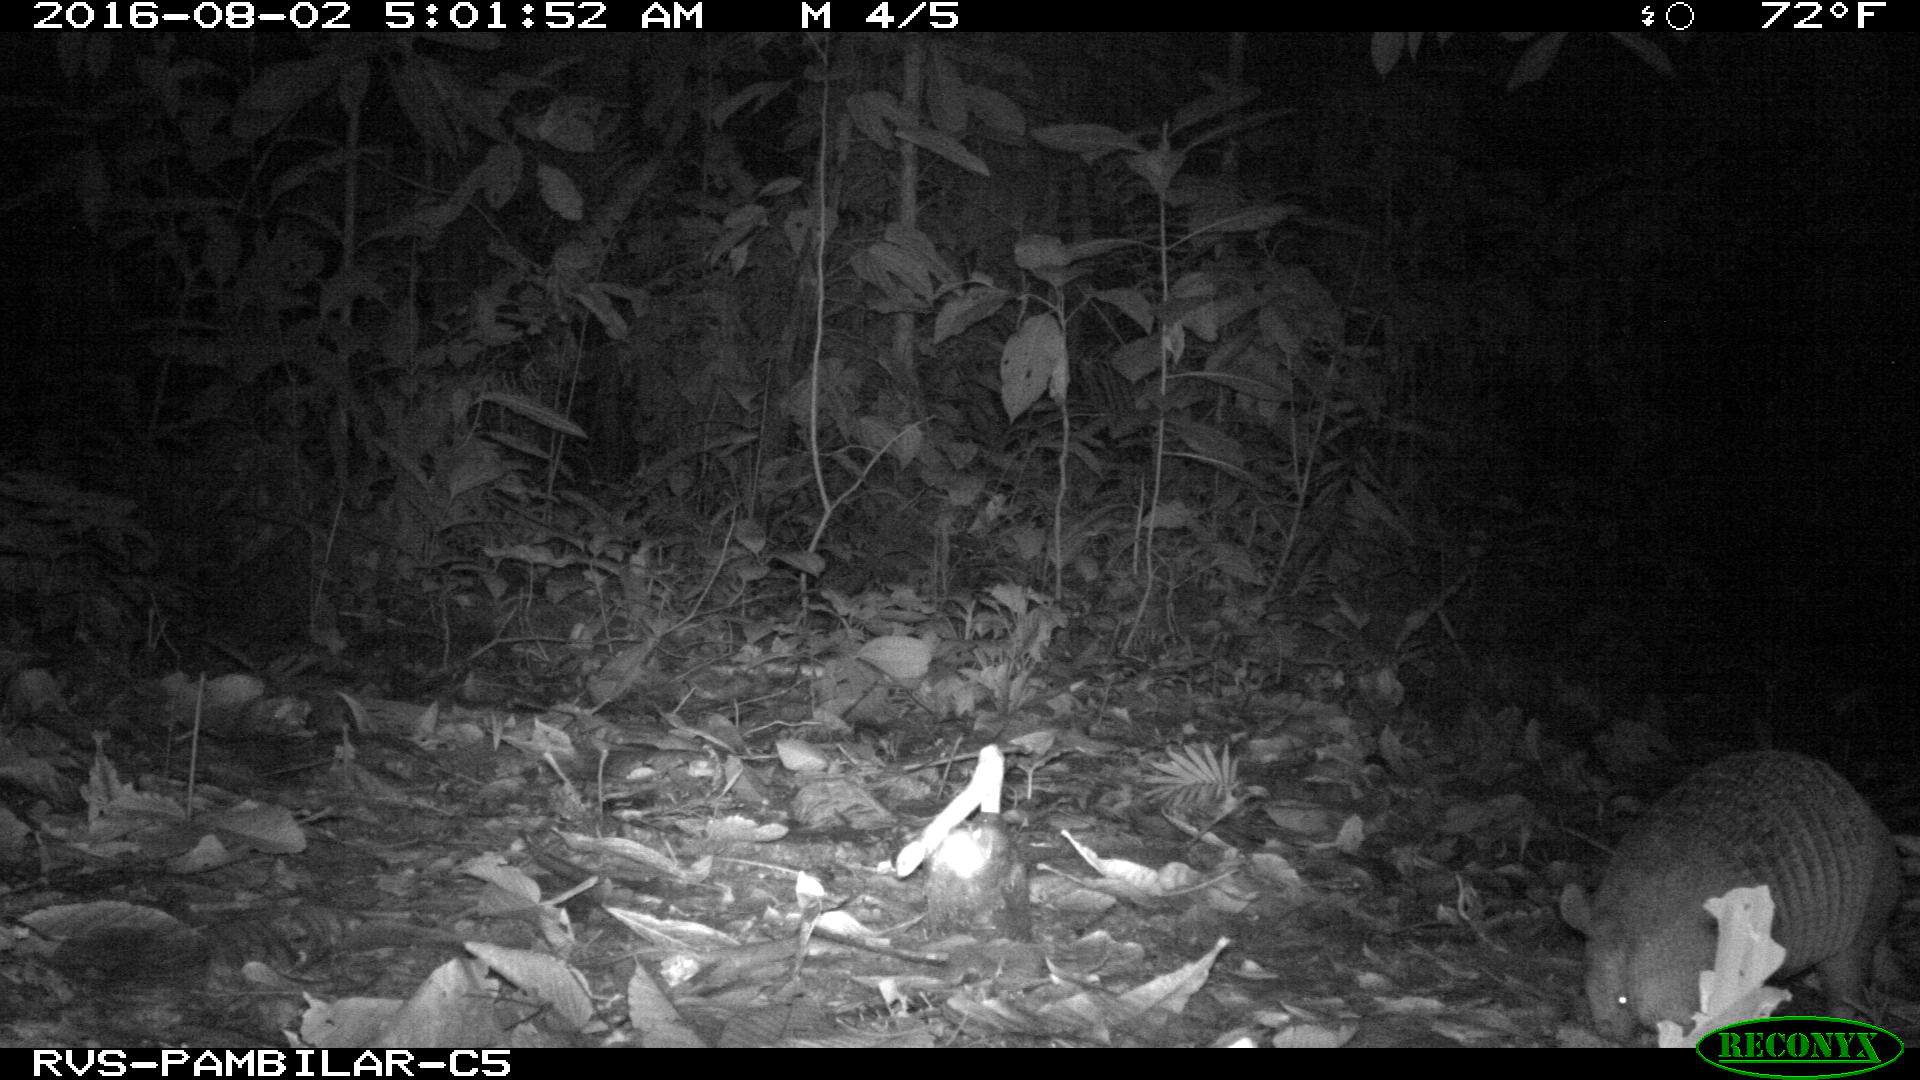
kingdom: Animalia
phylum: Chordata
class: Mammalia
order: Cingulata
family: Dasypodidae
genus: Dasypus
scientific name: Dasypus novemcinctus
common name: Nine-banded armadillo
